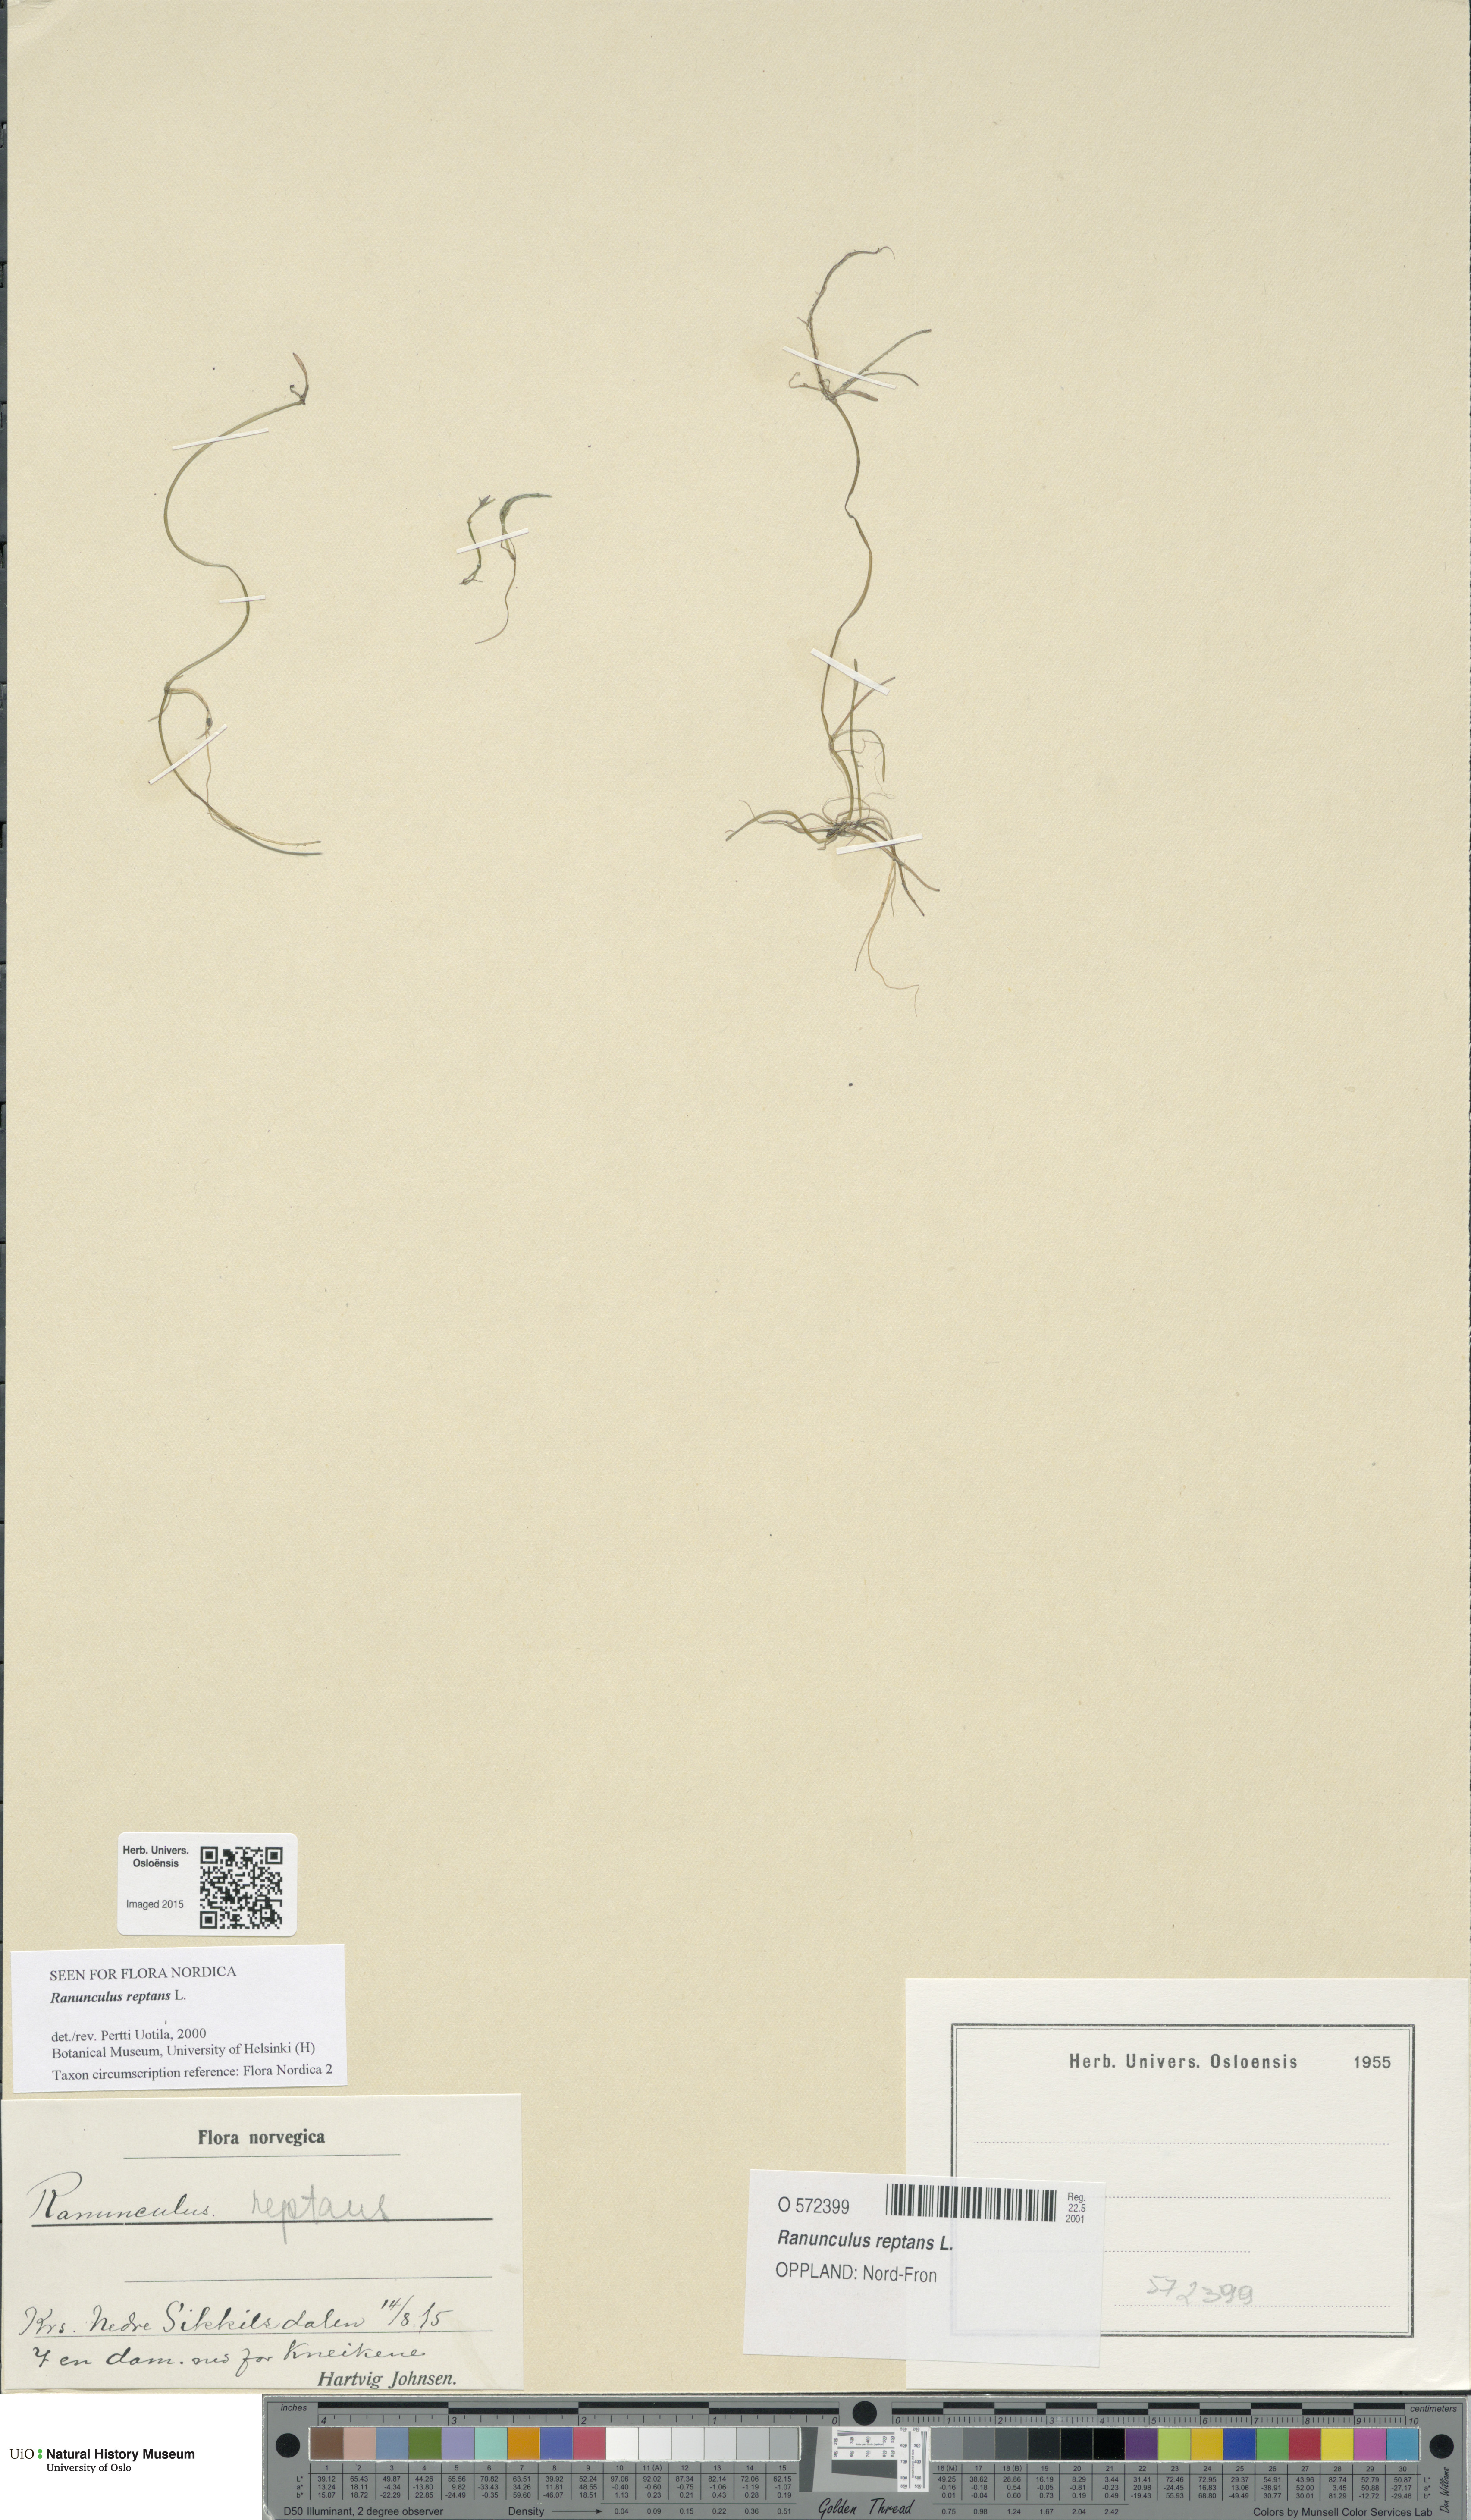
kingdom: Plantae
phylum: Tracheophyta
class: Magnoliopsida
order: Ranunculales
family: Ranunculaceae
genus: Ranunculus
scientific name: Ranunculus reptans
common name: Creeping spearwort
